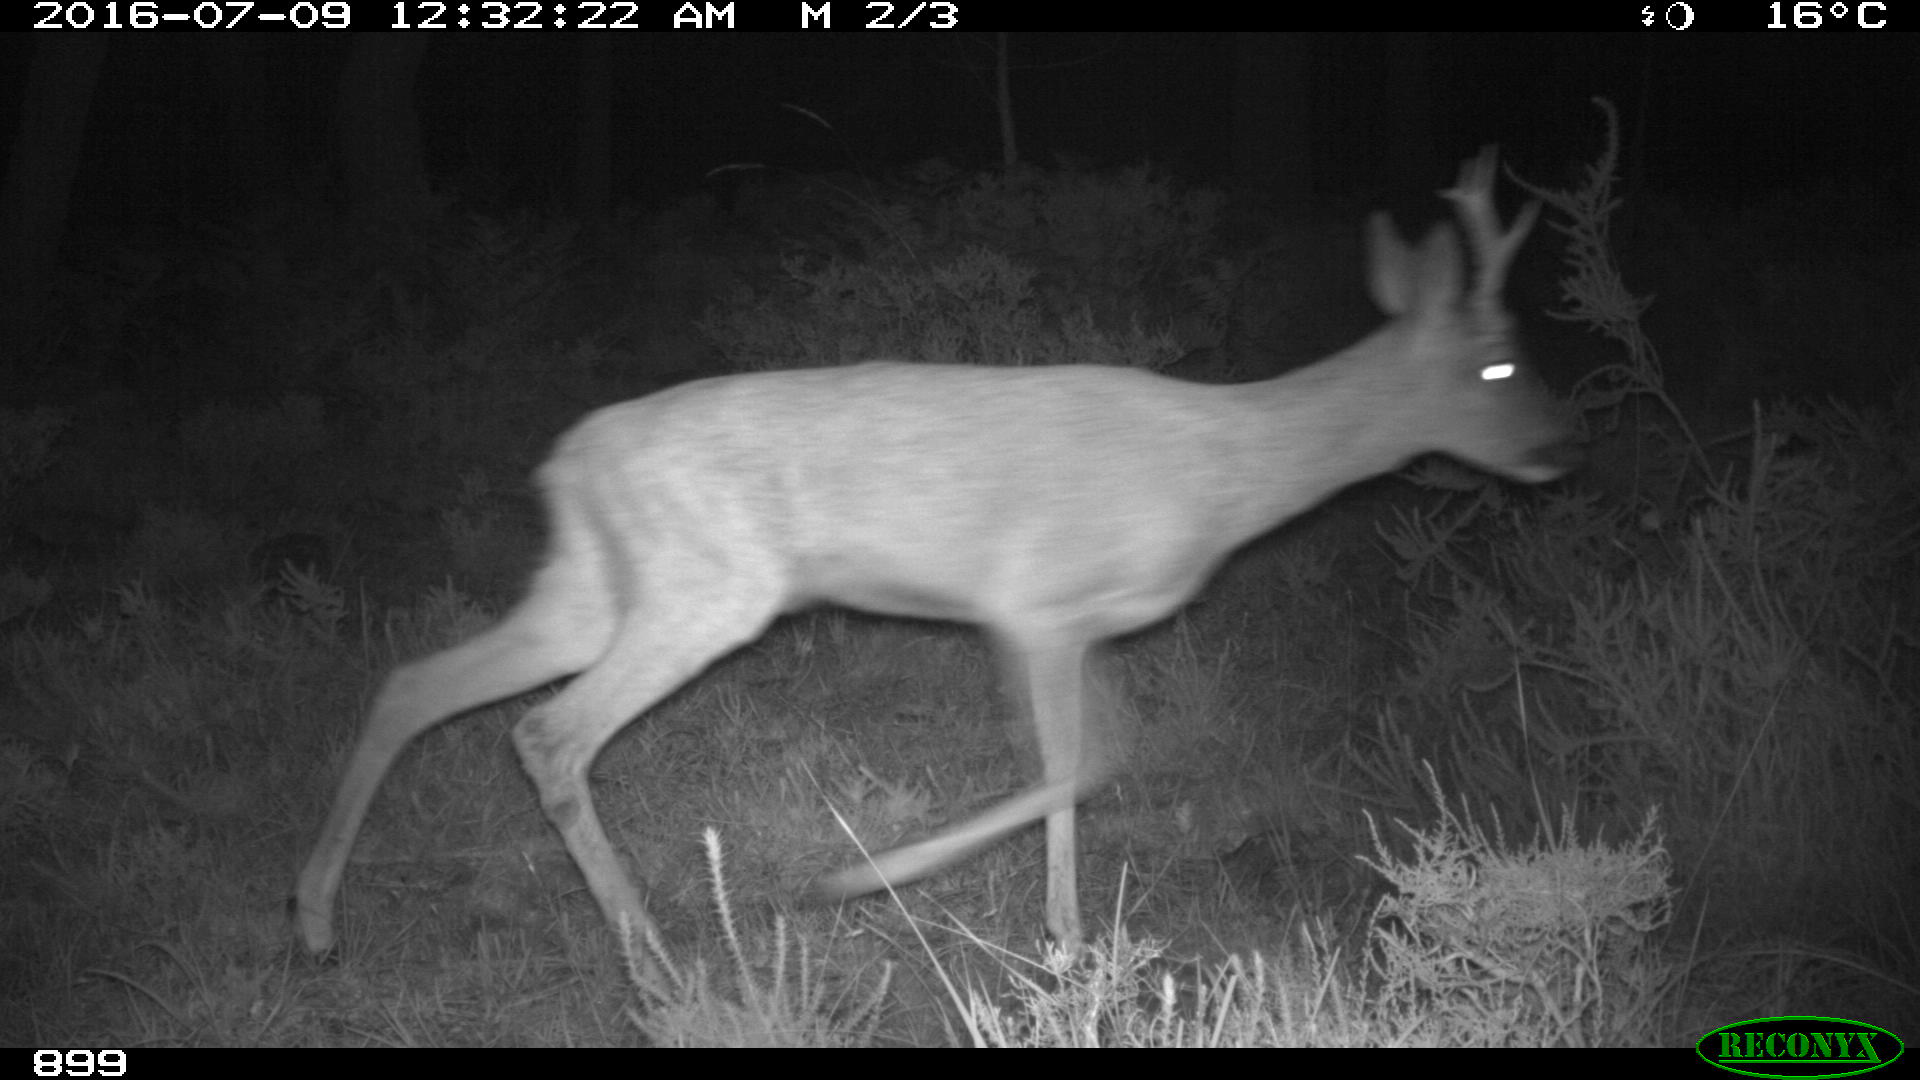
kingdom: Animalia
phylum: Chordata
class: Mammalia
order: Artiodactyla
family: Cervidae
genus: Capreolus
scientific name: Capreolus capreolus
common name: Western roe deer
